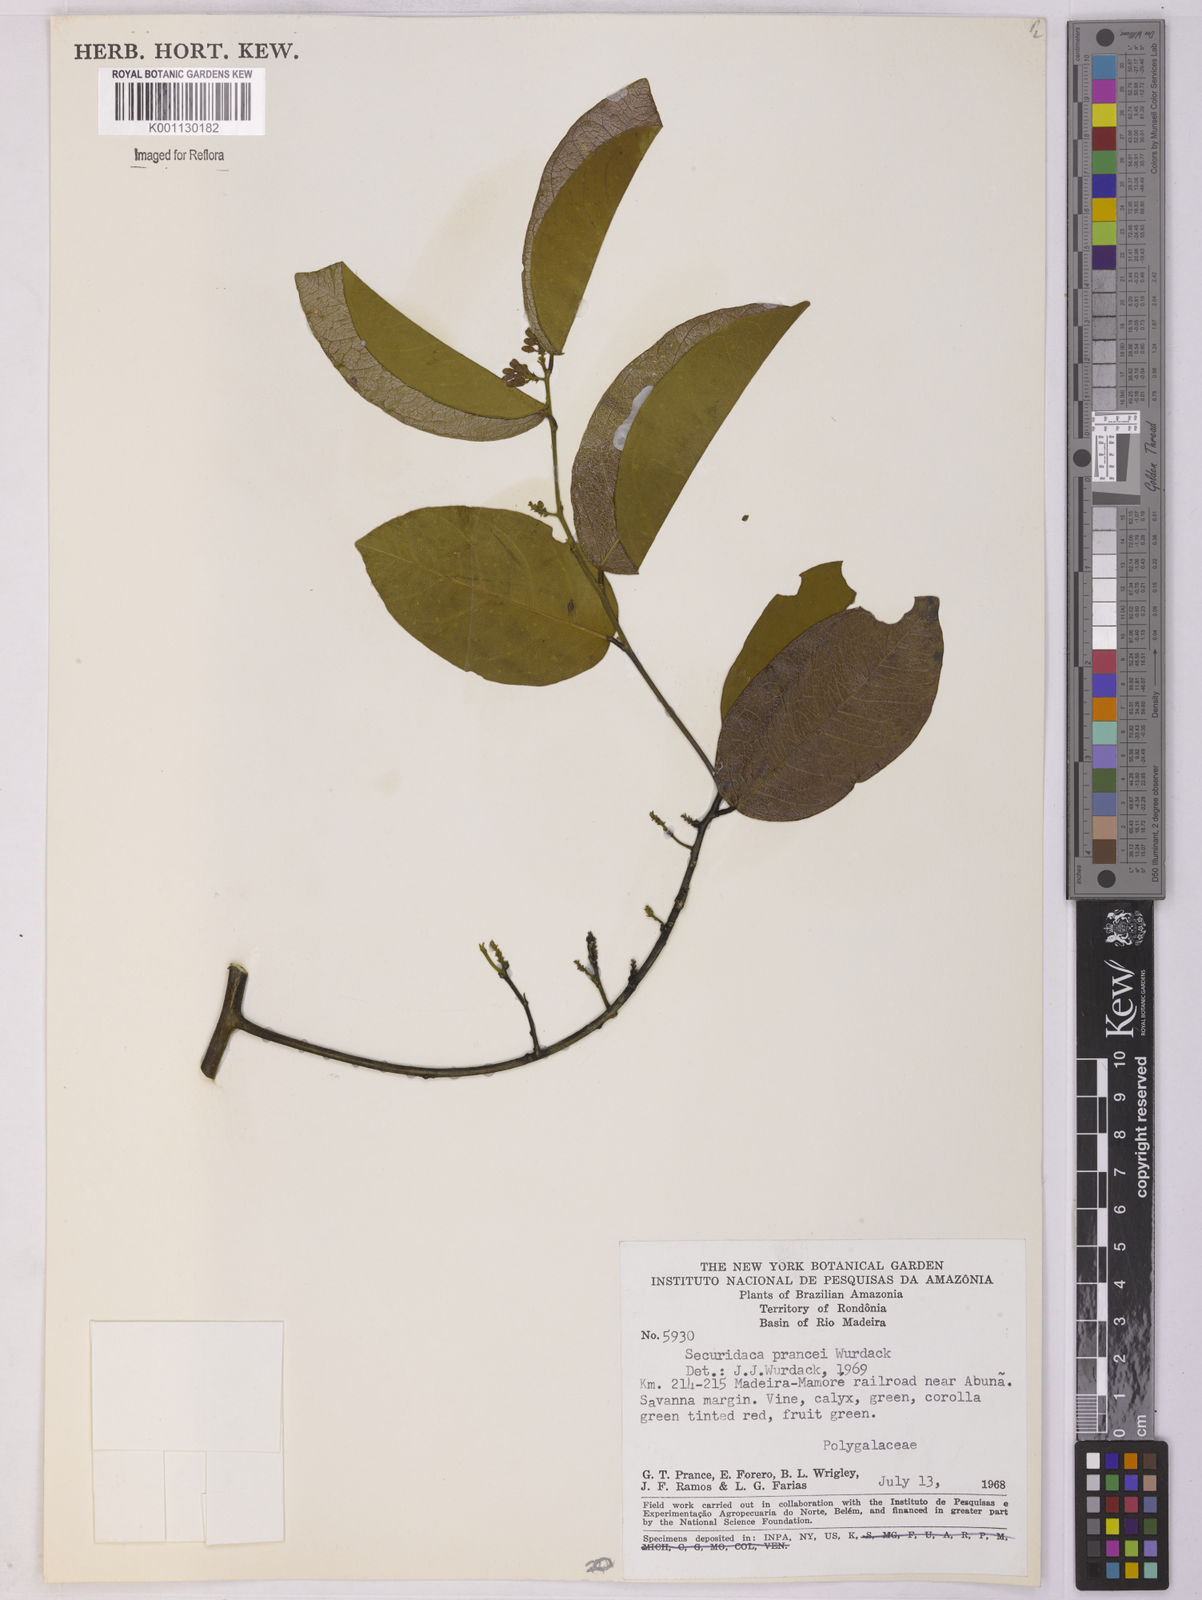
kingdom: Plantae
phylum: Tracheophyta
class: Magnoliopsida
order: Fabales
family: Polygalaceae
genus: Securidaca
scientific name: Securidaca prancei
